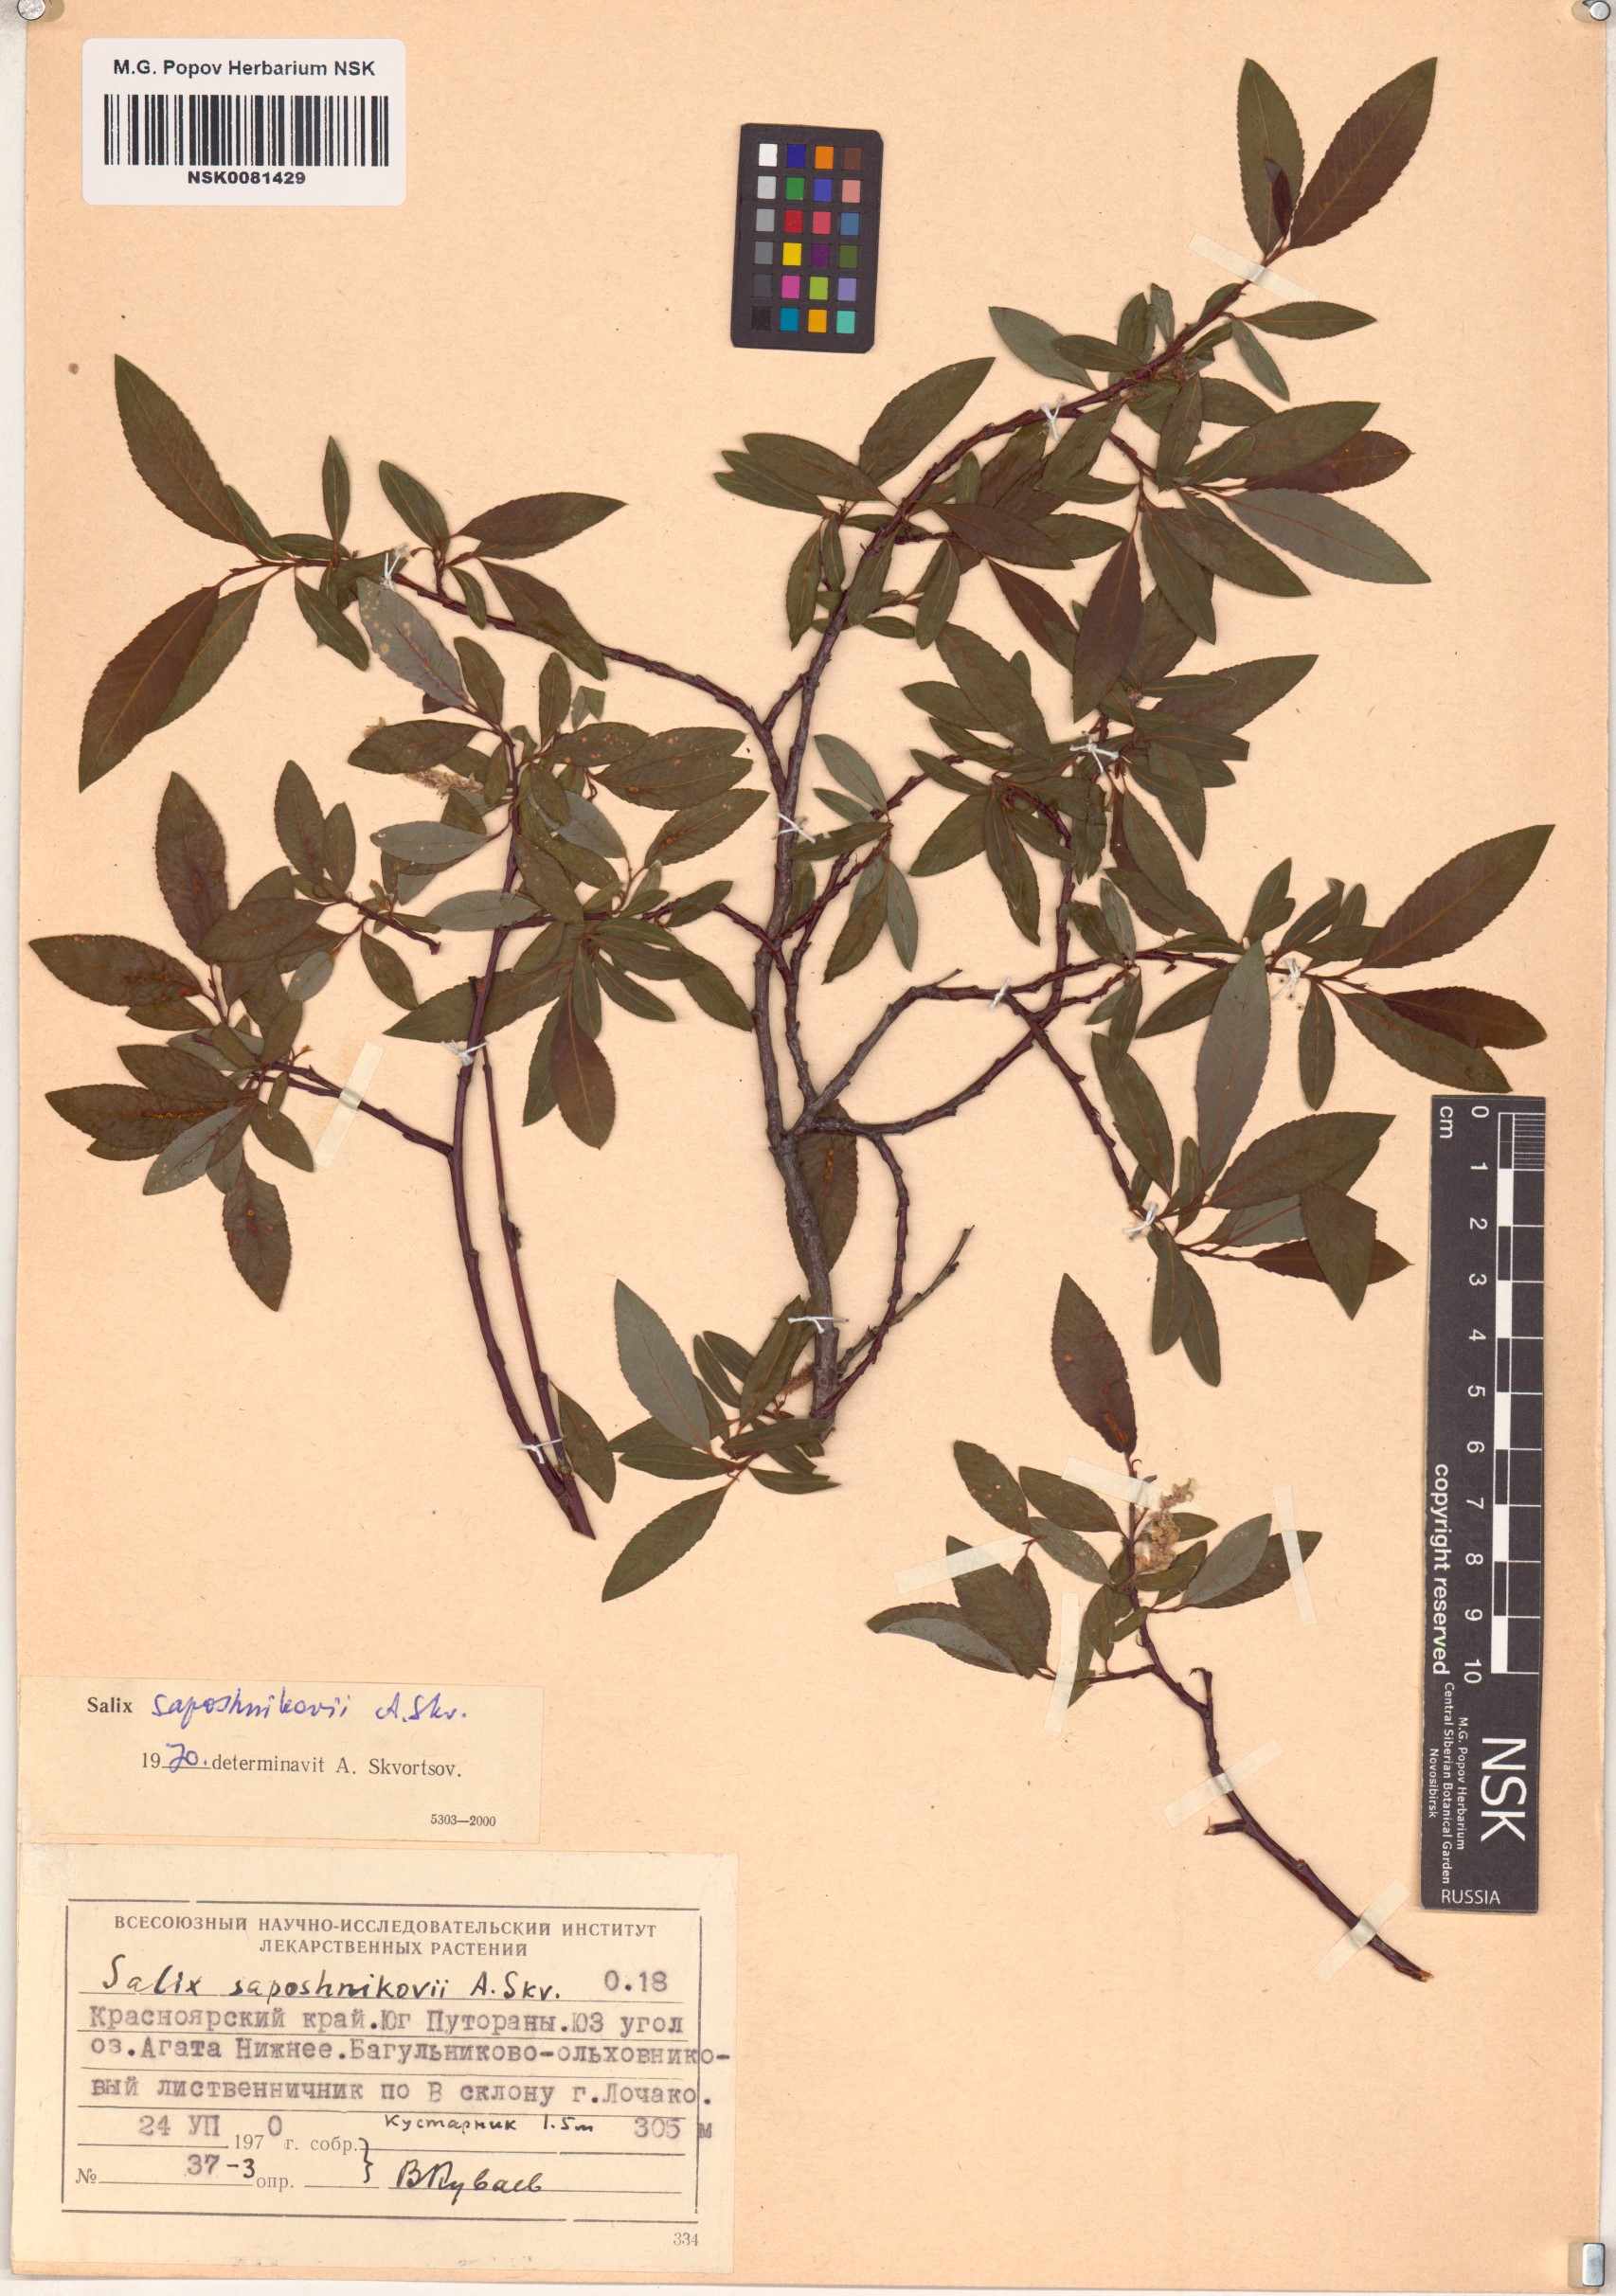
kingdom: Plantae
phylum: Tracheophyta
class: Magnoliopsida
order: Malpighiales
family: Salicaceae
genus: Salix
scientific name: Salix saposhnikovii
